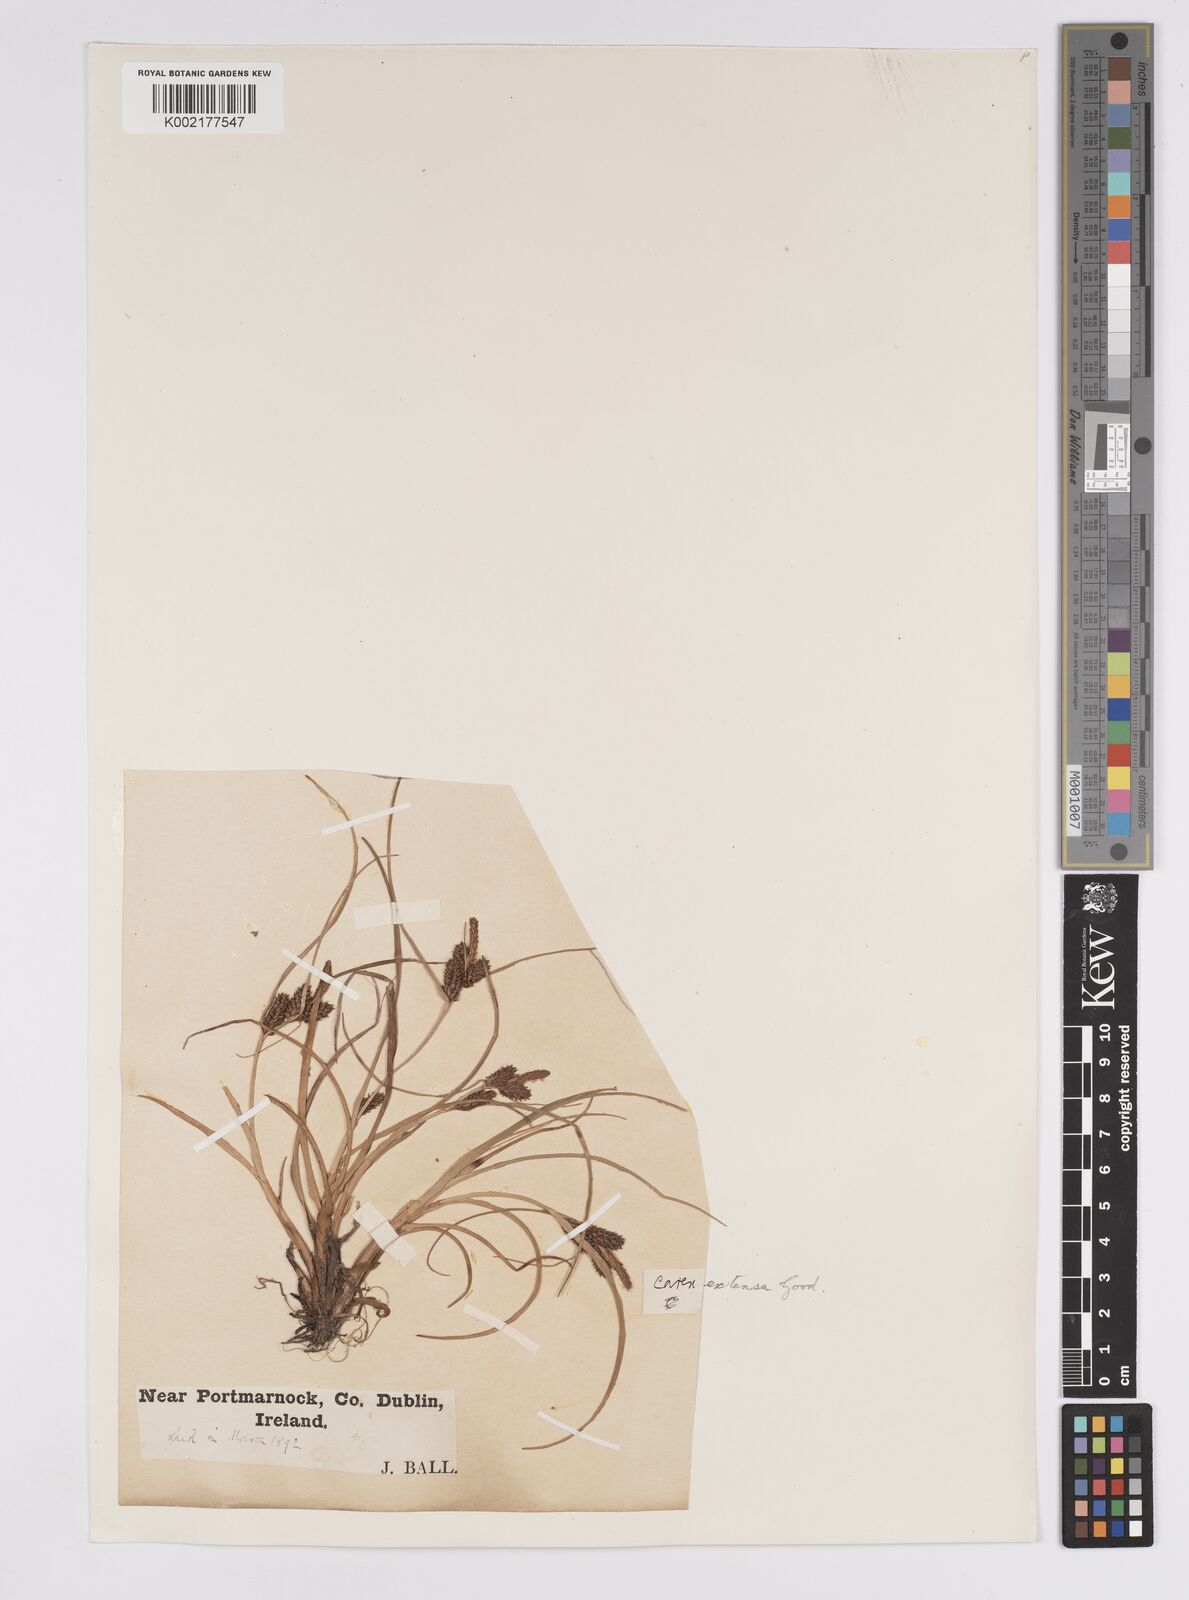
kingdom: Plantae
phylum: Tracheophyta
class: Liliopsida
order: Poales
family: Cyperaceae
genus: Carex
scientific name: Carex extensa
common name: Long-bracted sedge
